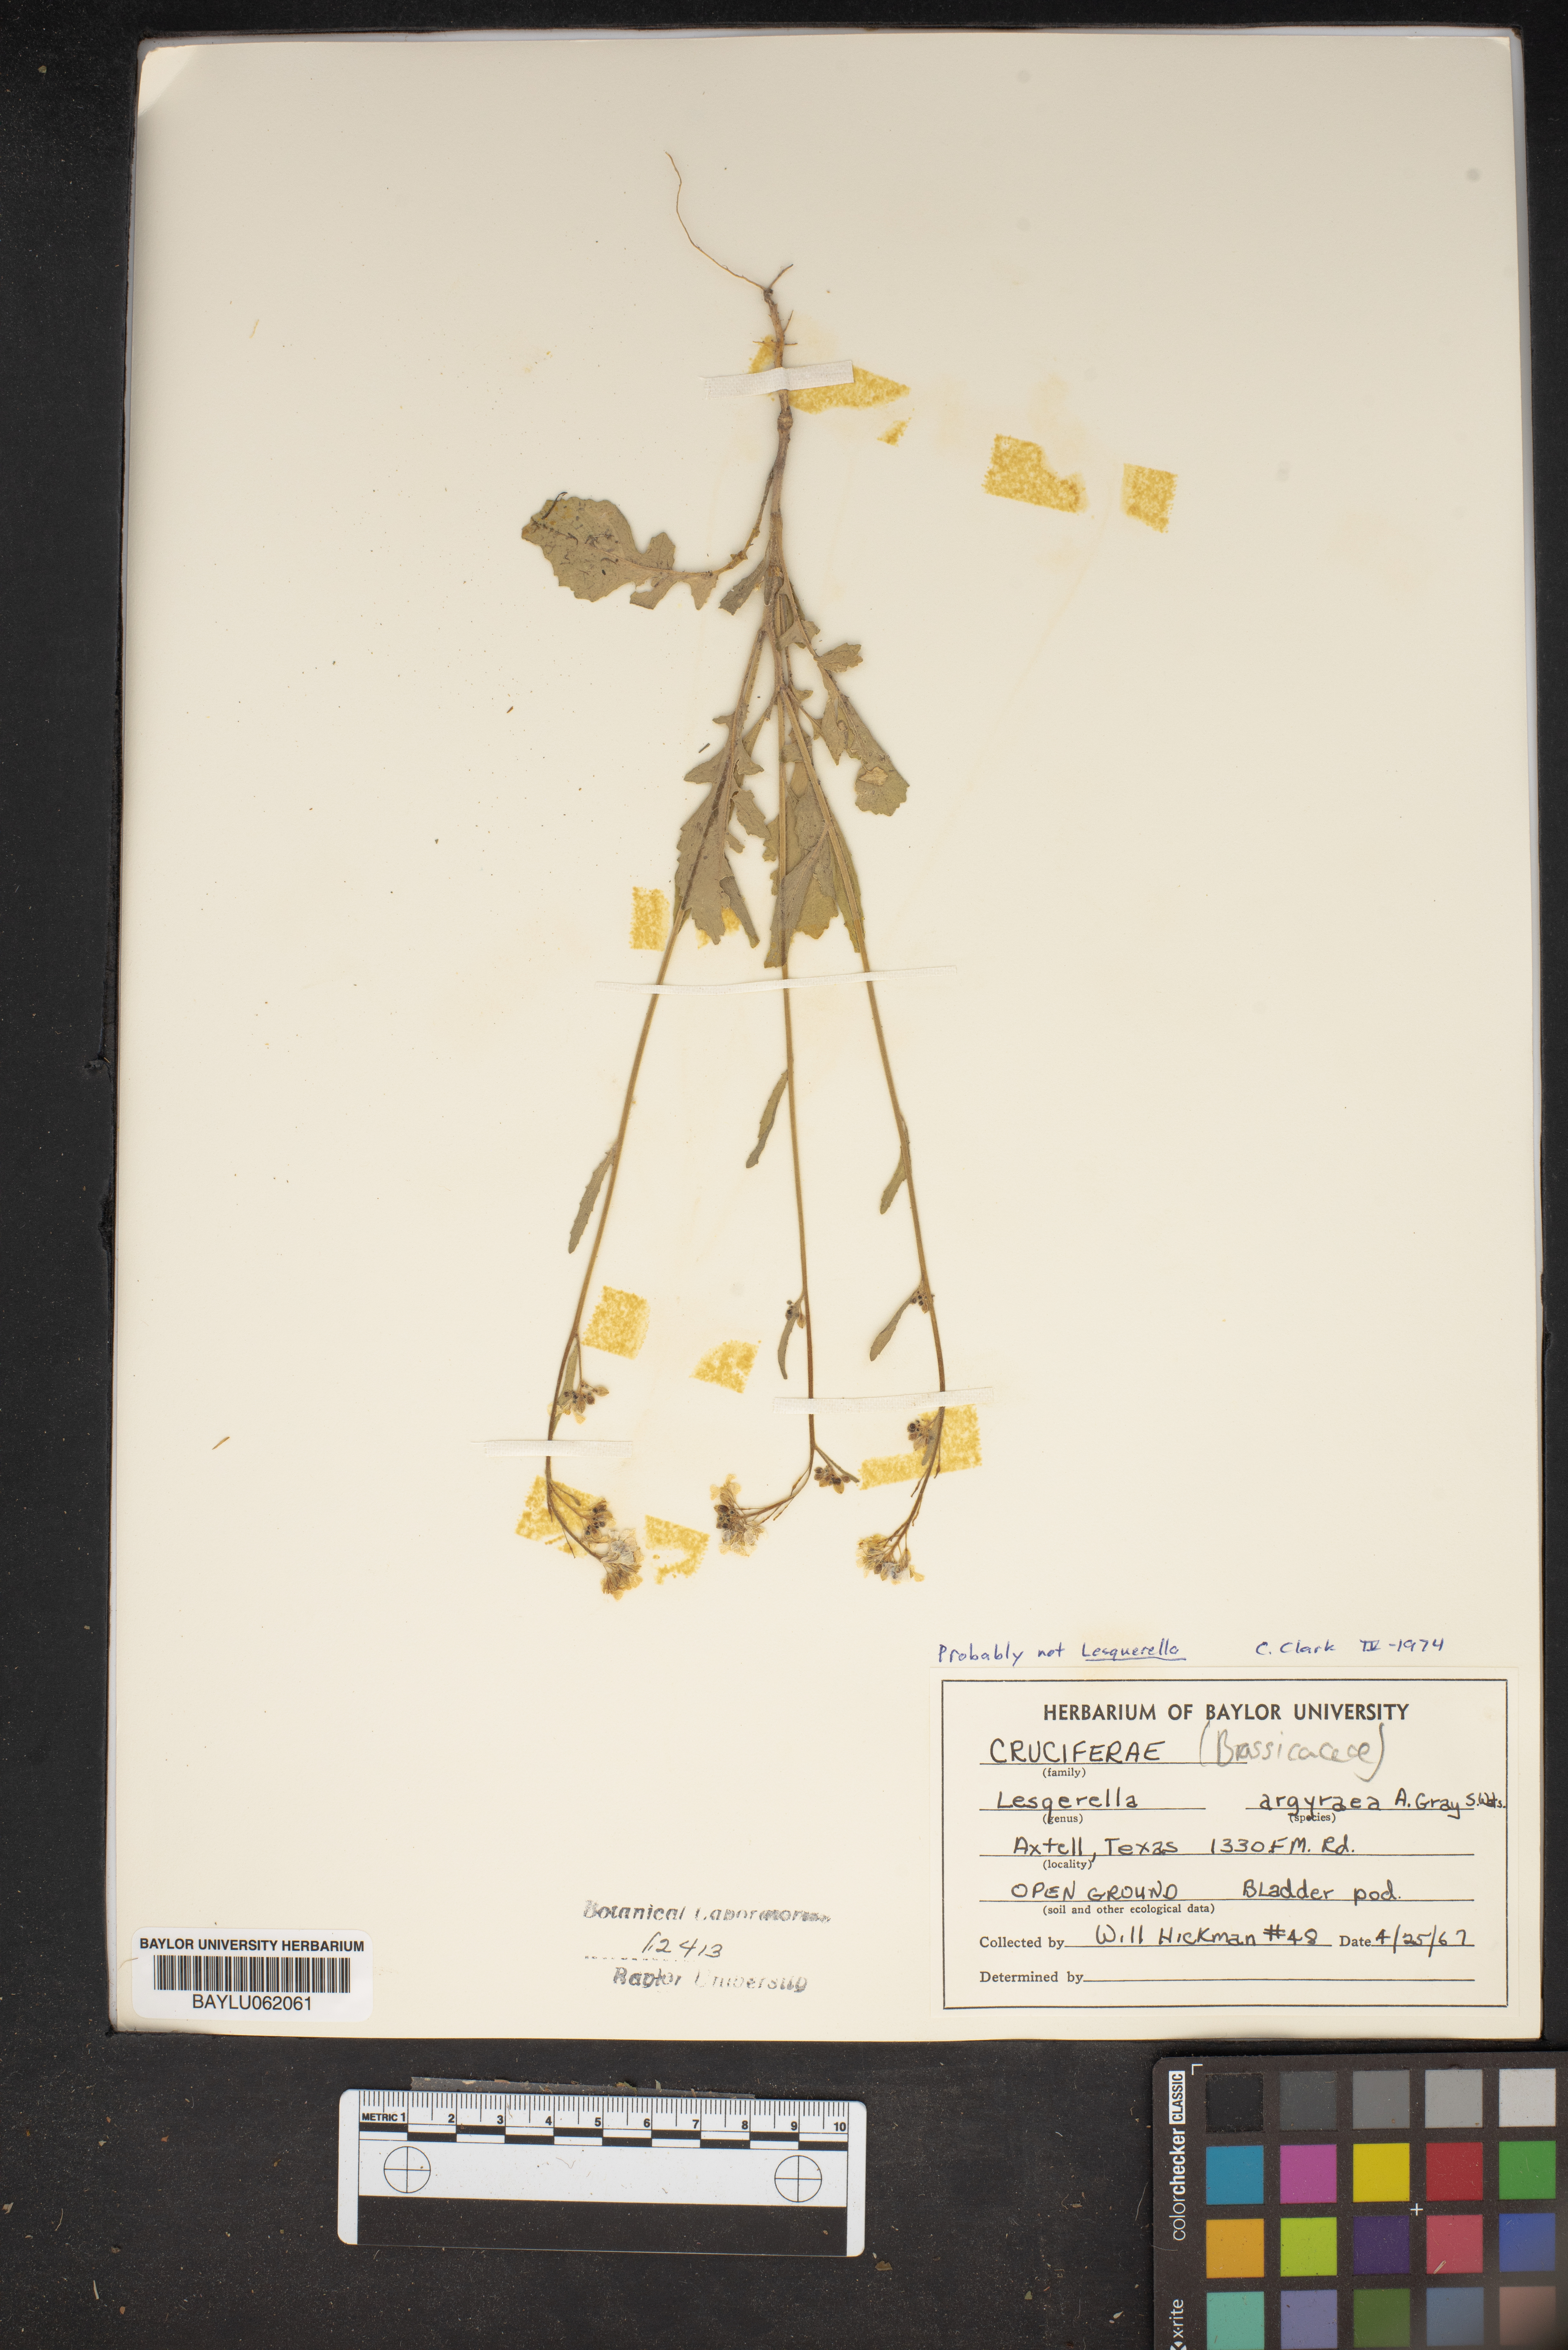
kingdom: Plantae
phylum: Tracheophyta
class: Magnoliopsida
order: Brassicales
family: Brassicaceae
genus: Physaria
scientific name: Physaria argyraea
